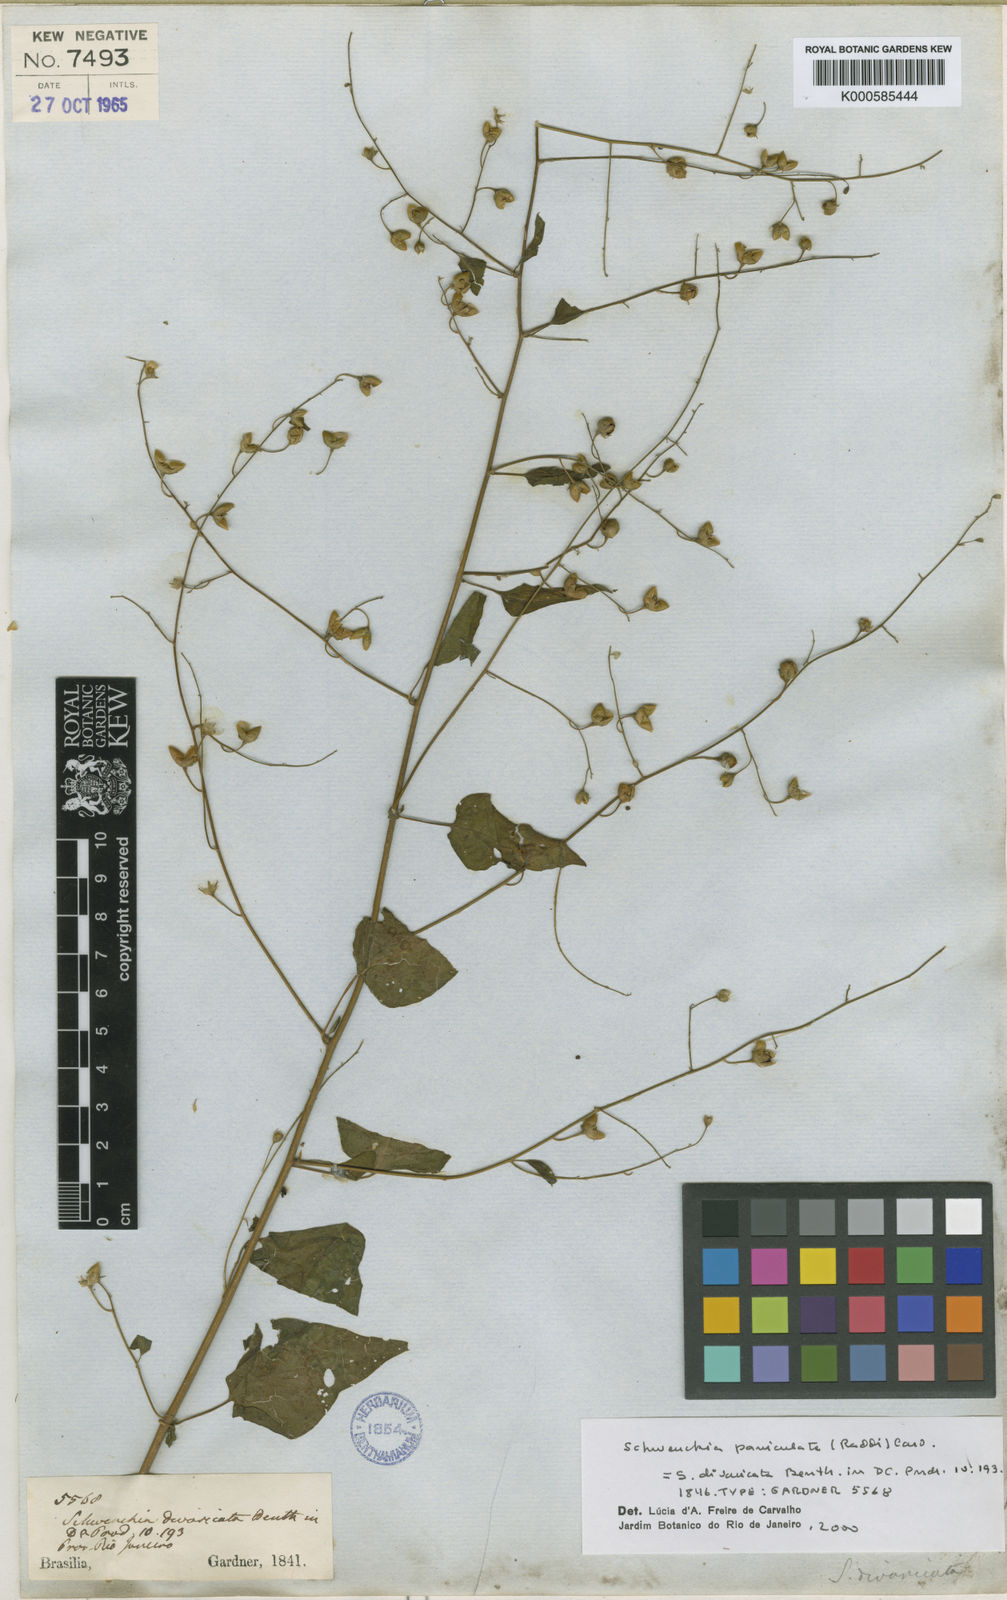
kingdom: Plantae
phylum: Tracheophyta
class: Magnoliopsida
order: Solanales
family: Solanaceae
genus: Schwenckia
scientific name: Schwenckia paniculata
